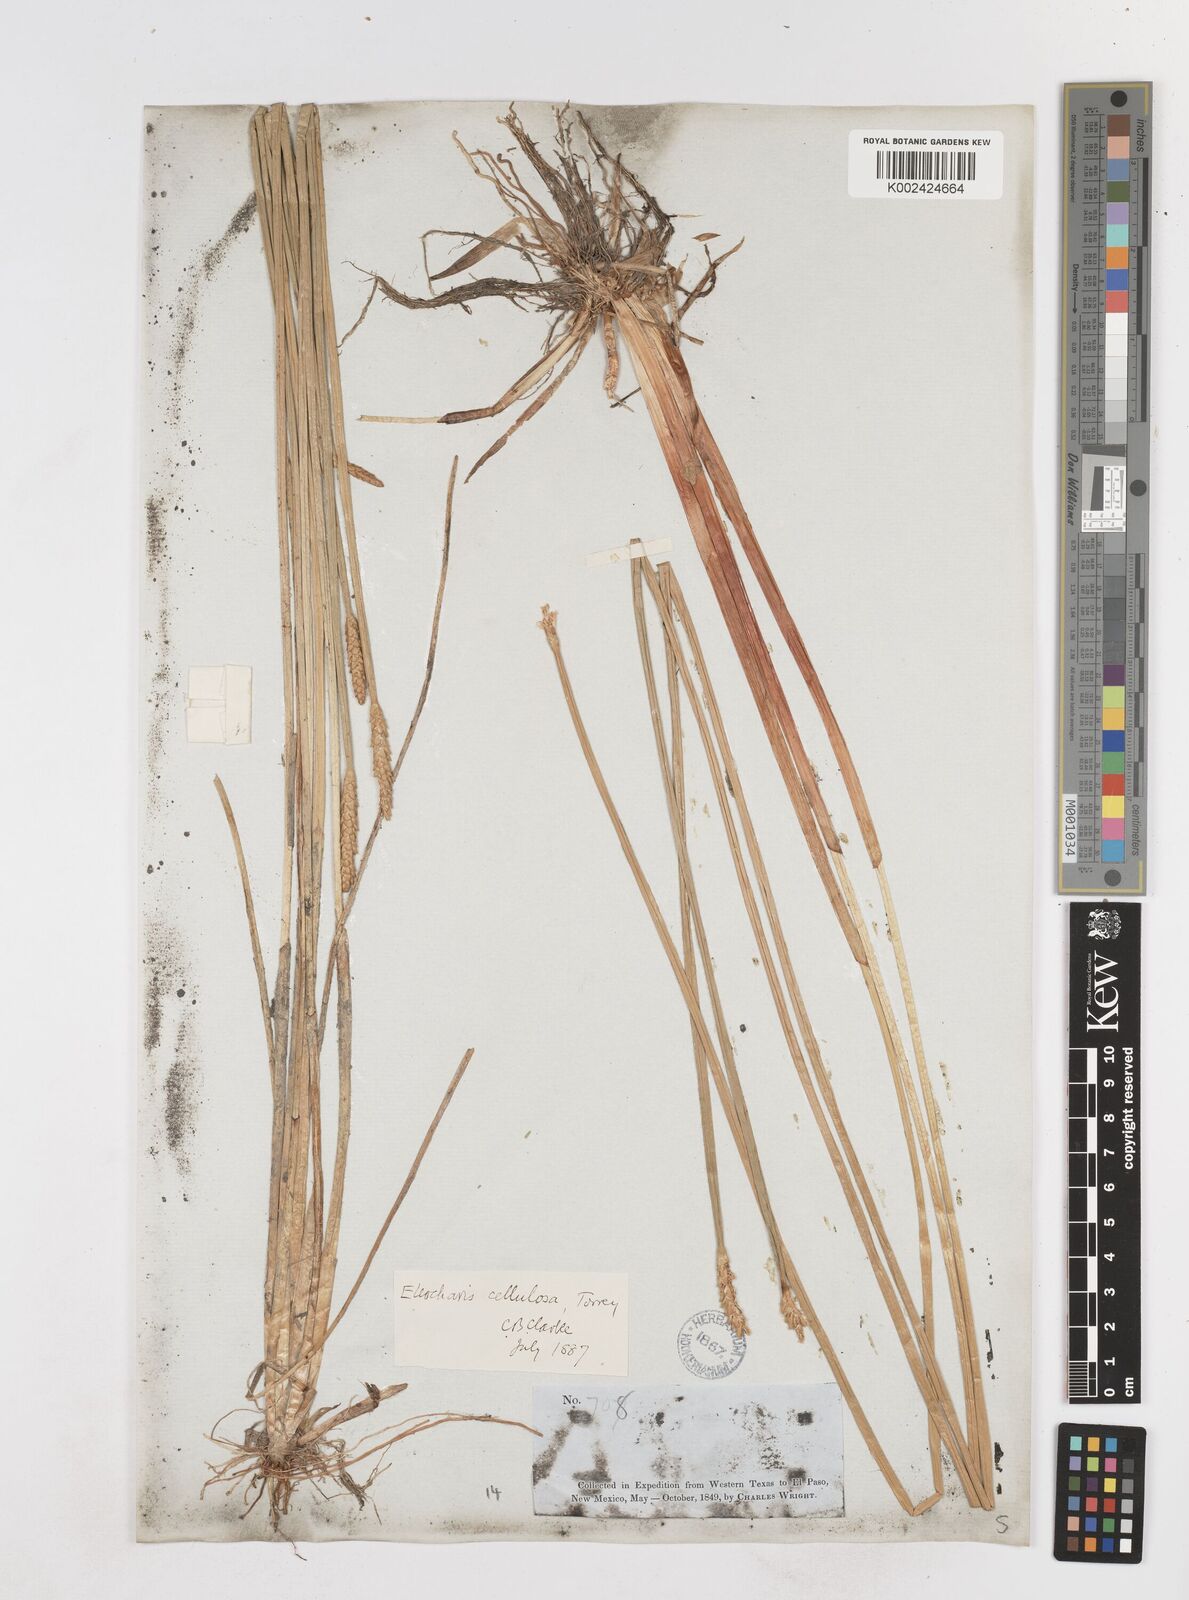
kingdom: Plantae
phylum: Tracheophyta
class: Liliopsida
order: Poales
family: Cyperaceae
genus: Eleocharis
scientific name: Eleocharis cellulosa
